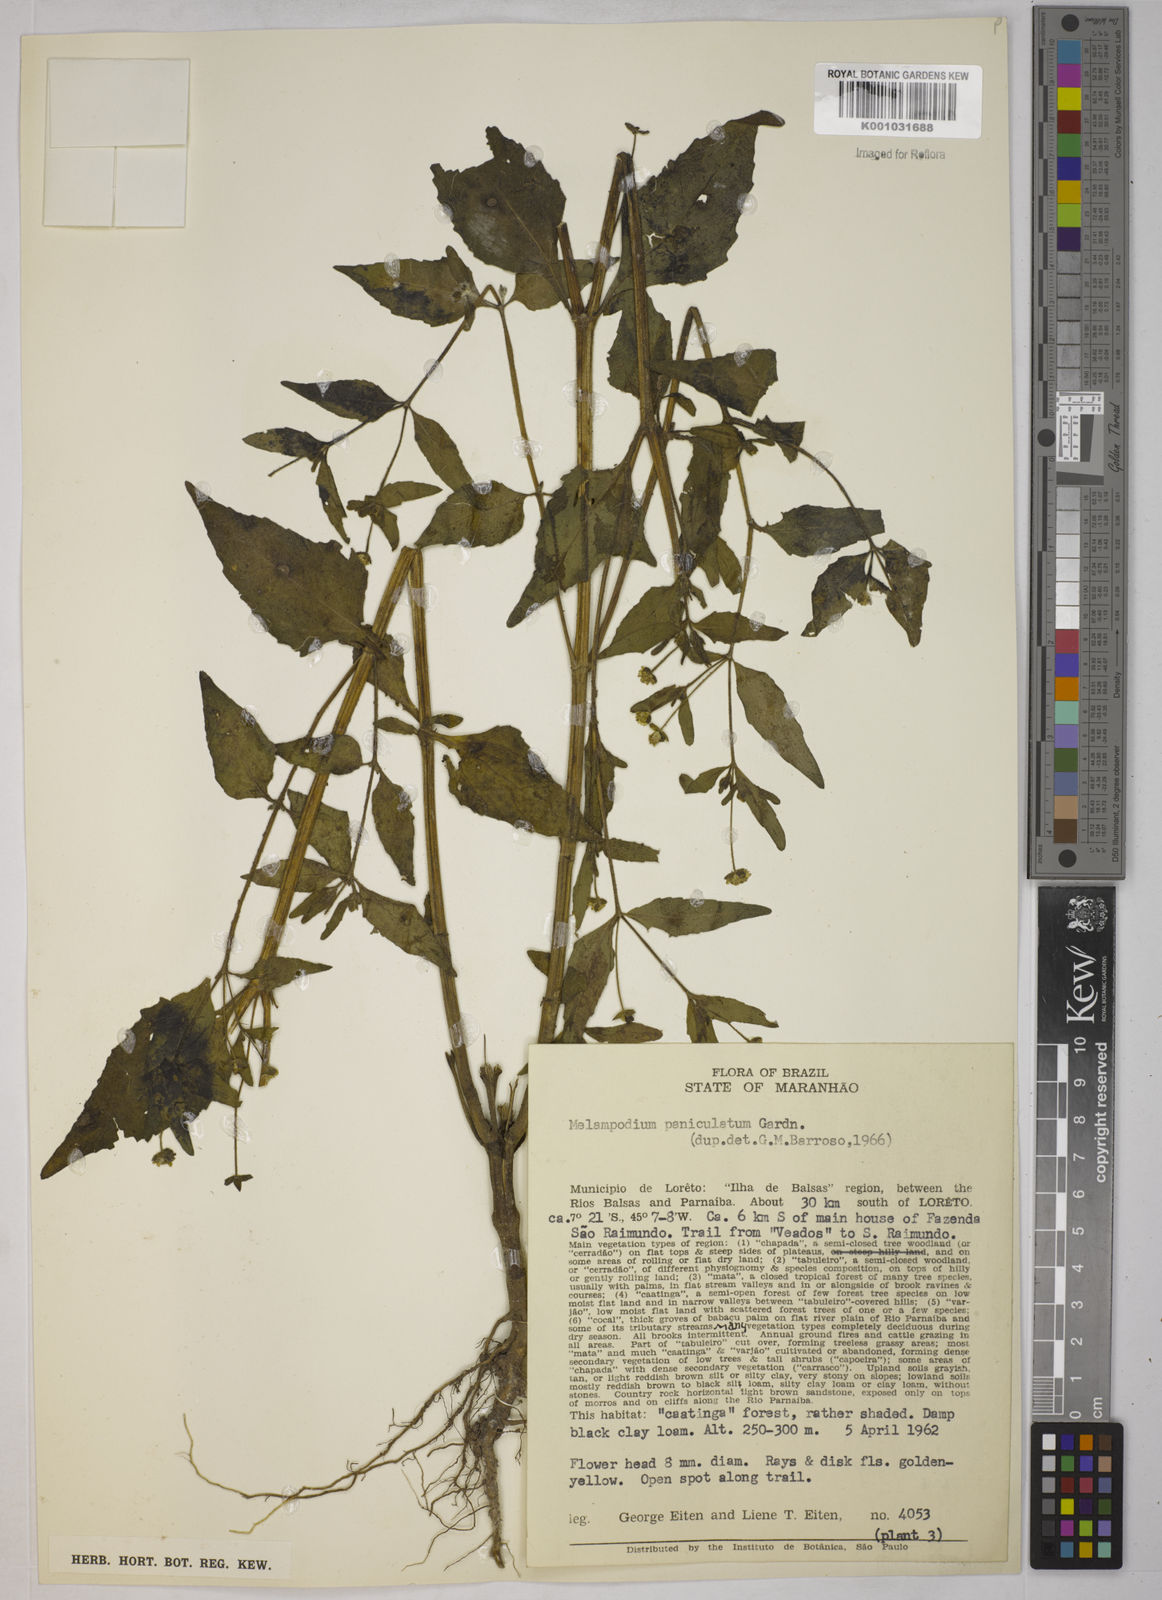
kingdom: Plantae
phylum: Tracheophyta
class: Magnoliopsida
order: Asterales
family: Asteraceae
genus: Melampodium
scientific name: Melampodium paniculatum
